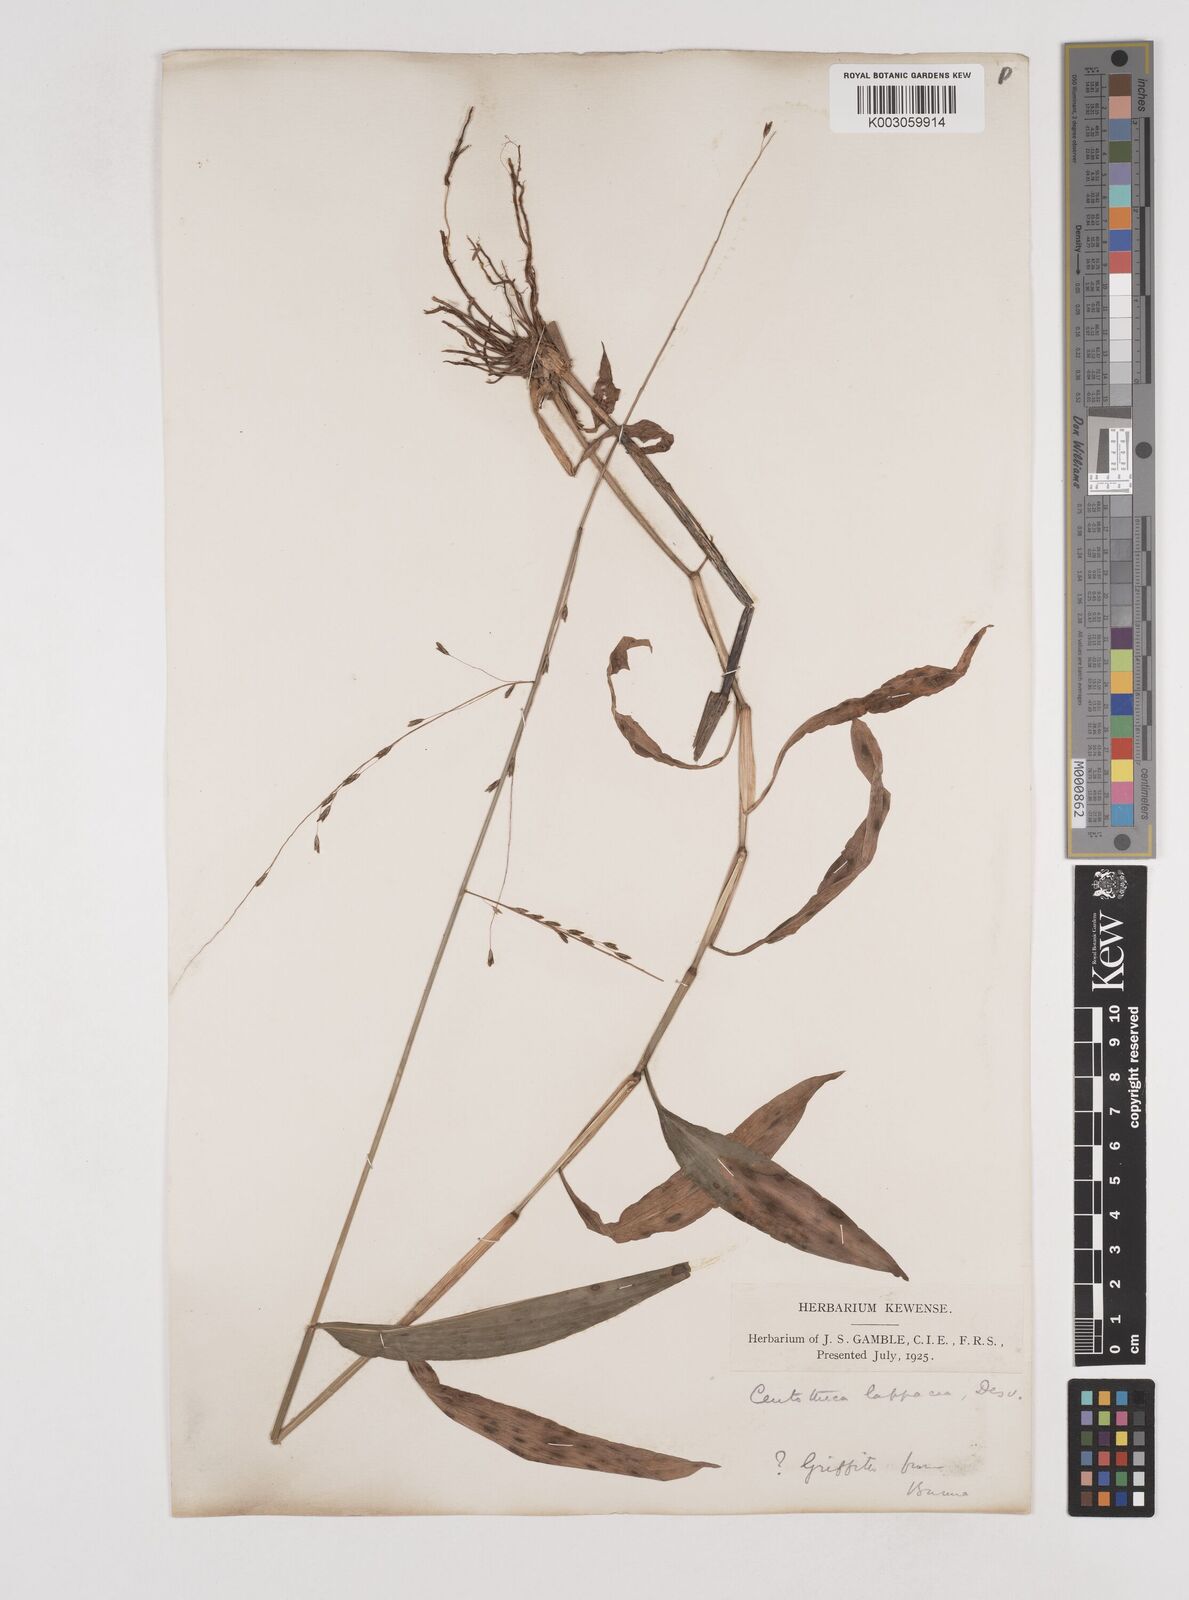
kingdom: Plantae
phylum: Tracheophyta
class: Liliopsida
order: Poales
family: Poaceae
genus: Centotheca
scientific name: Centotheca lappacea
